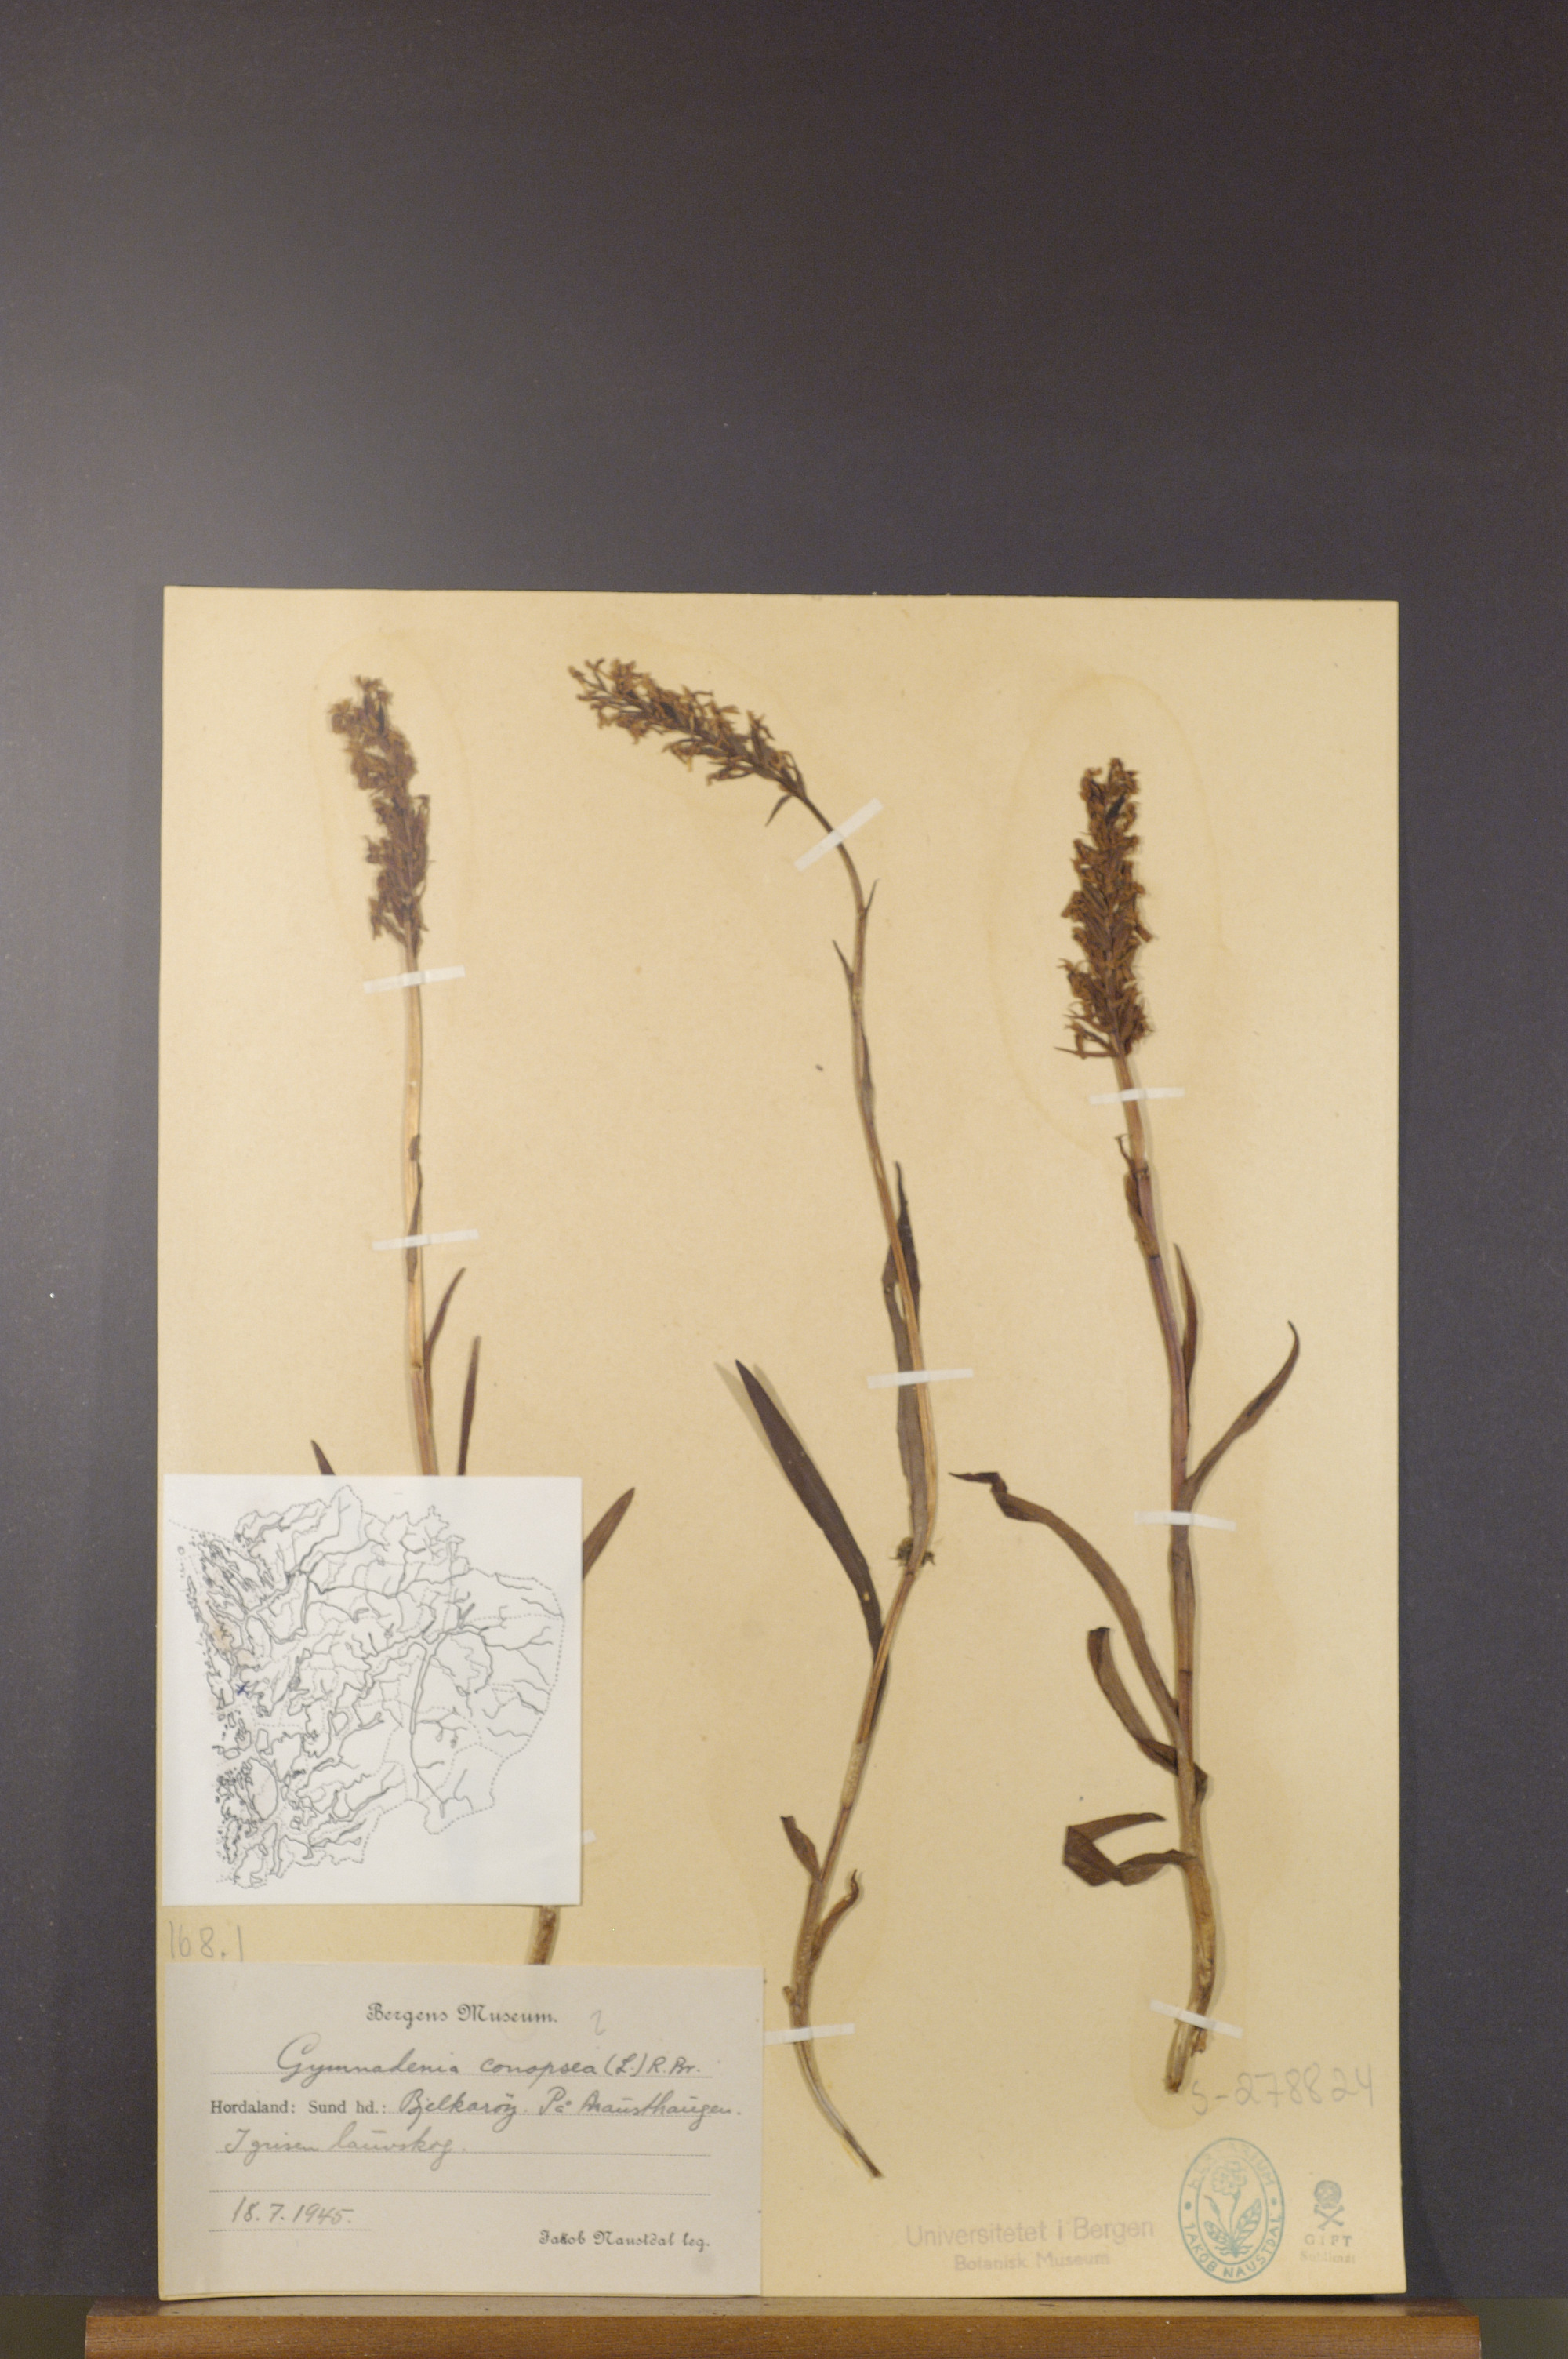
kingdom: Plantae
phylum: Tracheophyta
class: Liliopsida
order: Asparagales
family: Orchidaceae
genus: Gymnadenia
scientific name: Gymnadenia conopsea
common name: Fragrant orchid
